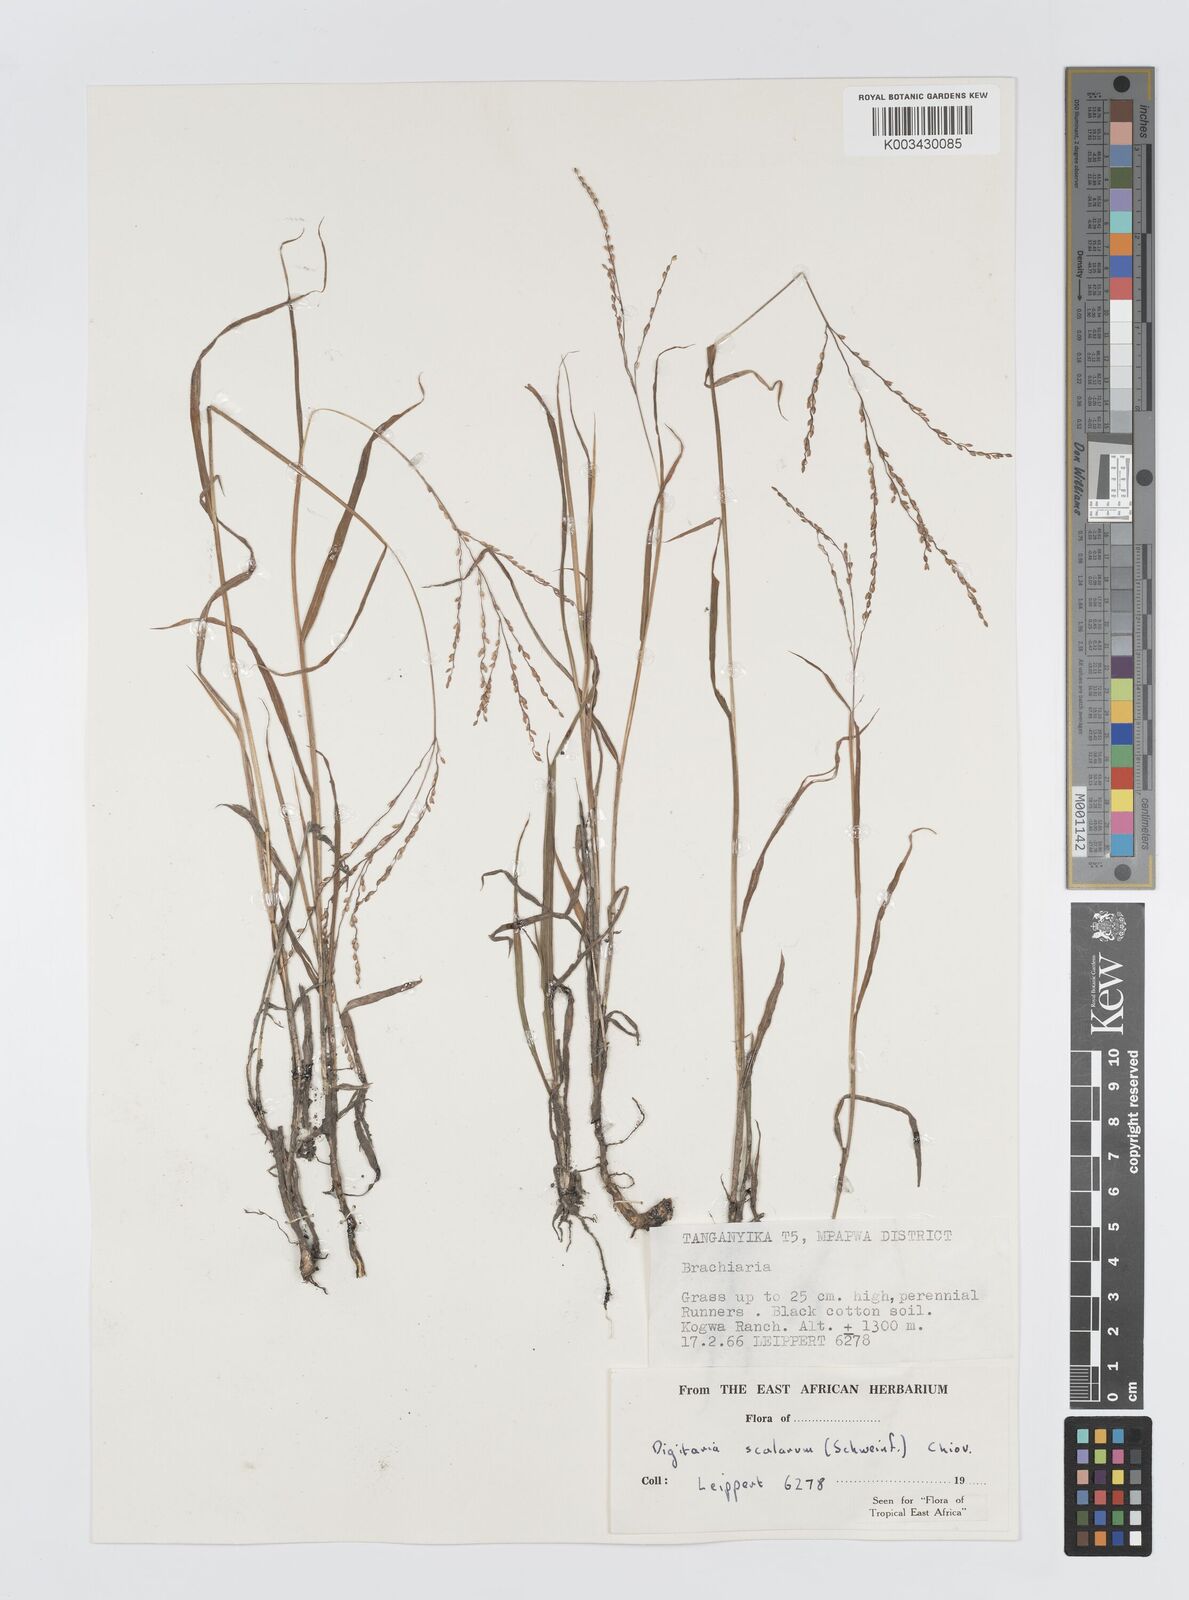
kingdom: Plantae
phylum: Tracheophyta
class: Liliopsida
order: Poales
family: Poaceae
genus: Digitaria
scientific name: Digitaria abyssinica
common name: African couchgrass
